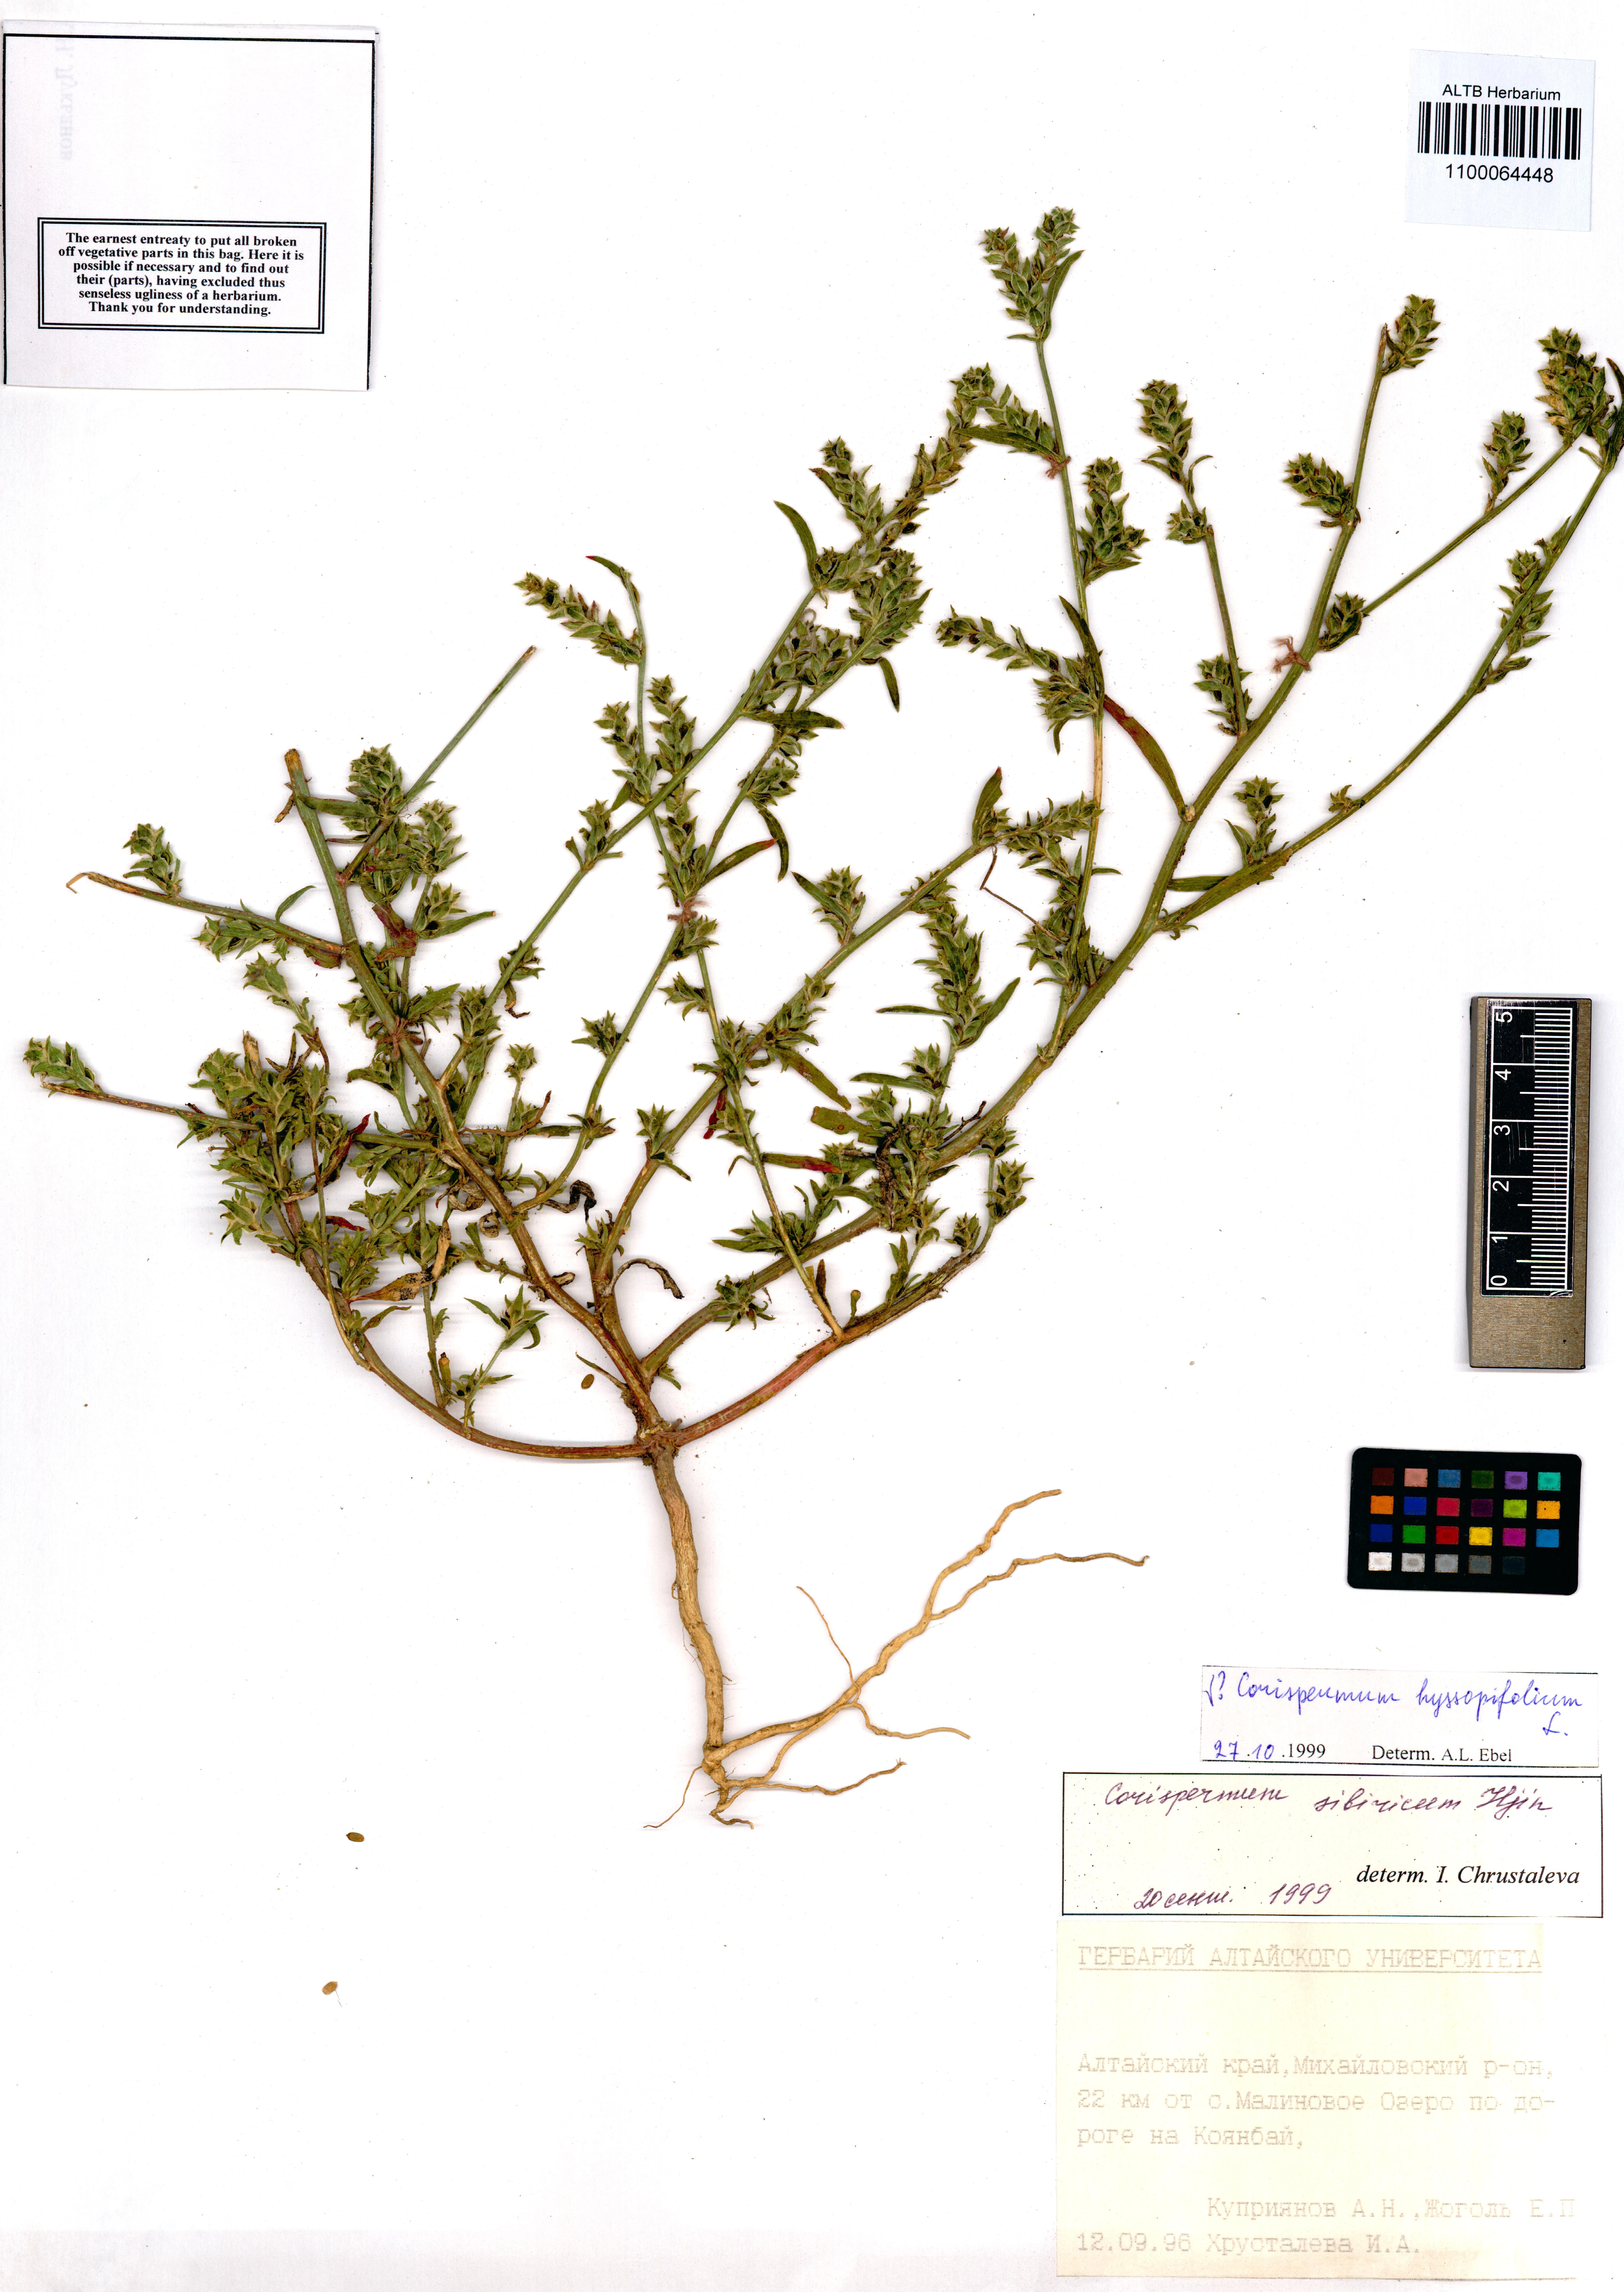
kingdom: Plantae
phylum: Tracheophyta
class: Magnoliopsida
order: Caryophyllales
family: Amaranthaceae
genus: Corispermum
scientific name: Corispermum hyssopifolium
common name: Bugseed
